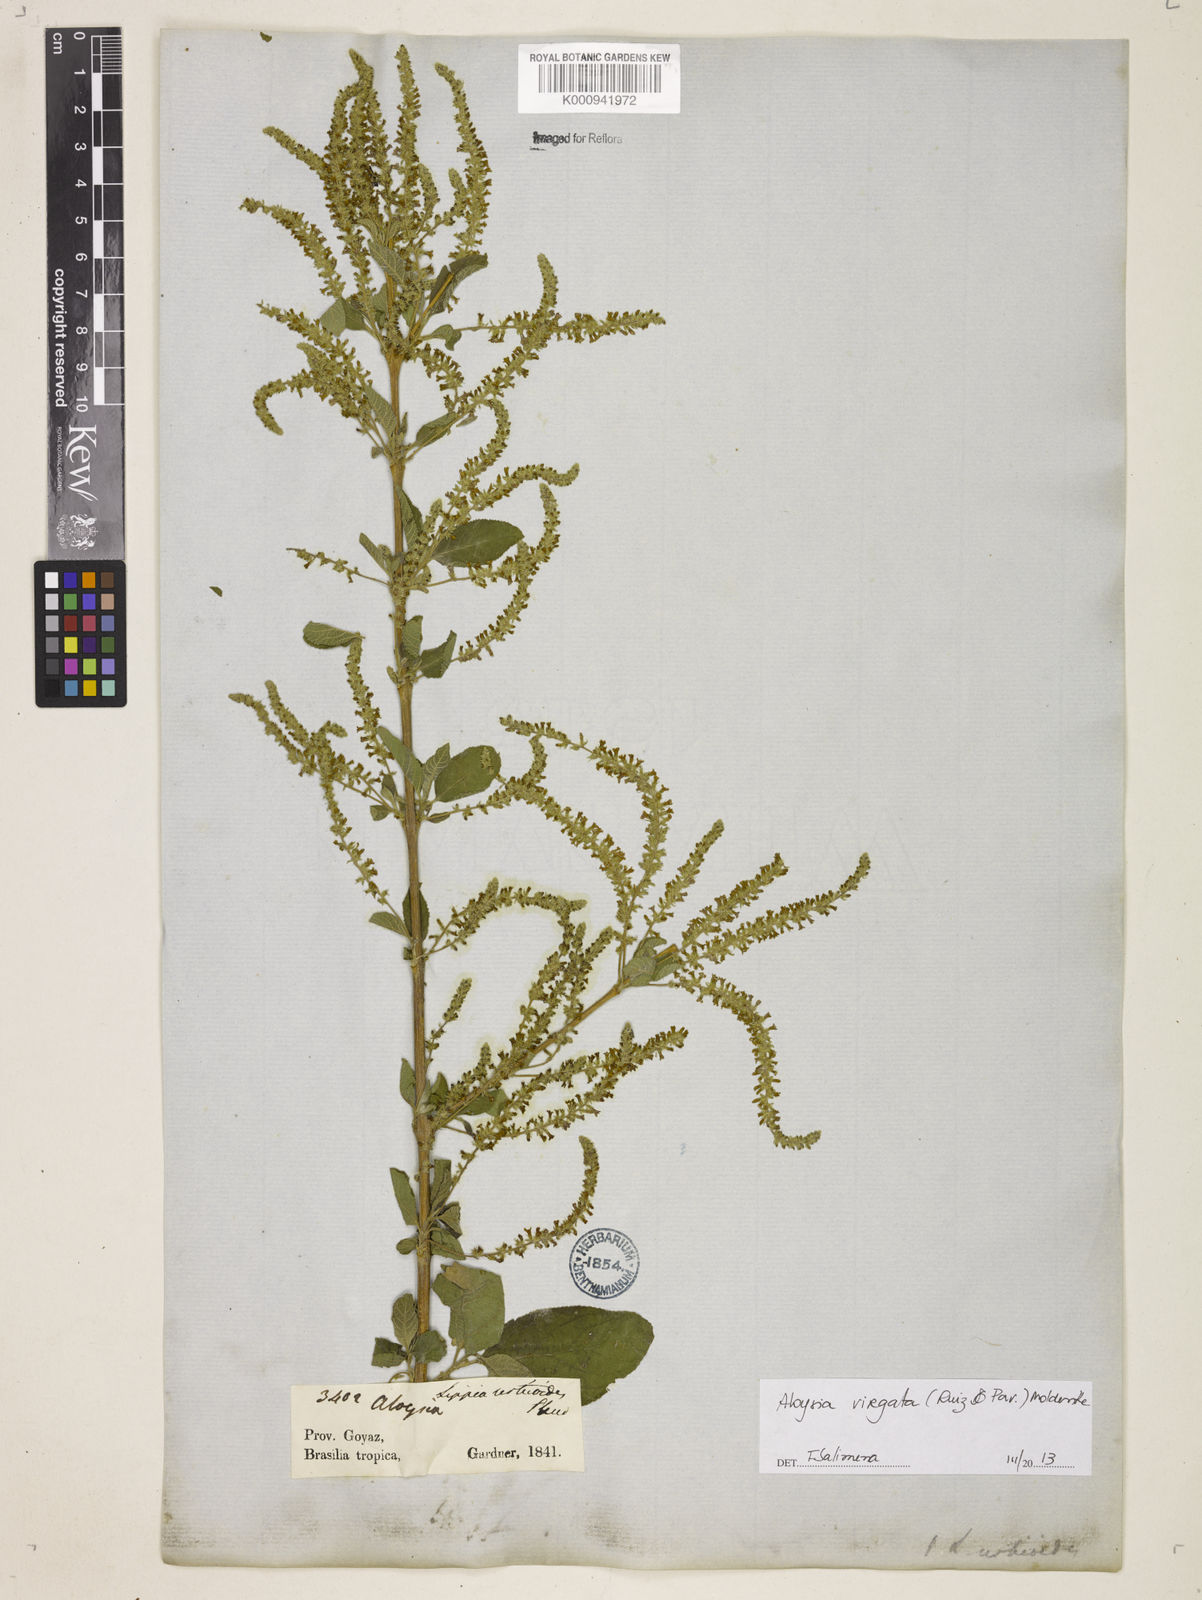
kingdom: Plantae
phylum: Tracheophyta
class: Magnoliopsida
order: Lamiales
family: Verbenaceae
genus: Aloysia
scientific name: Aloysia
